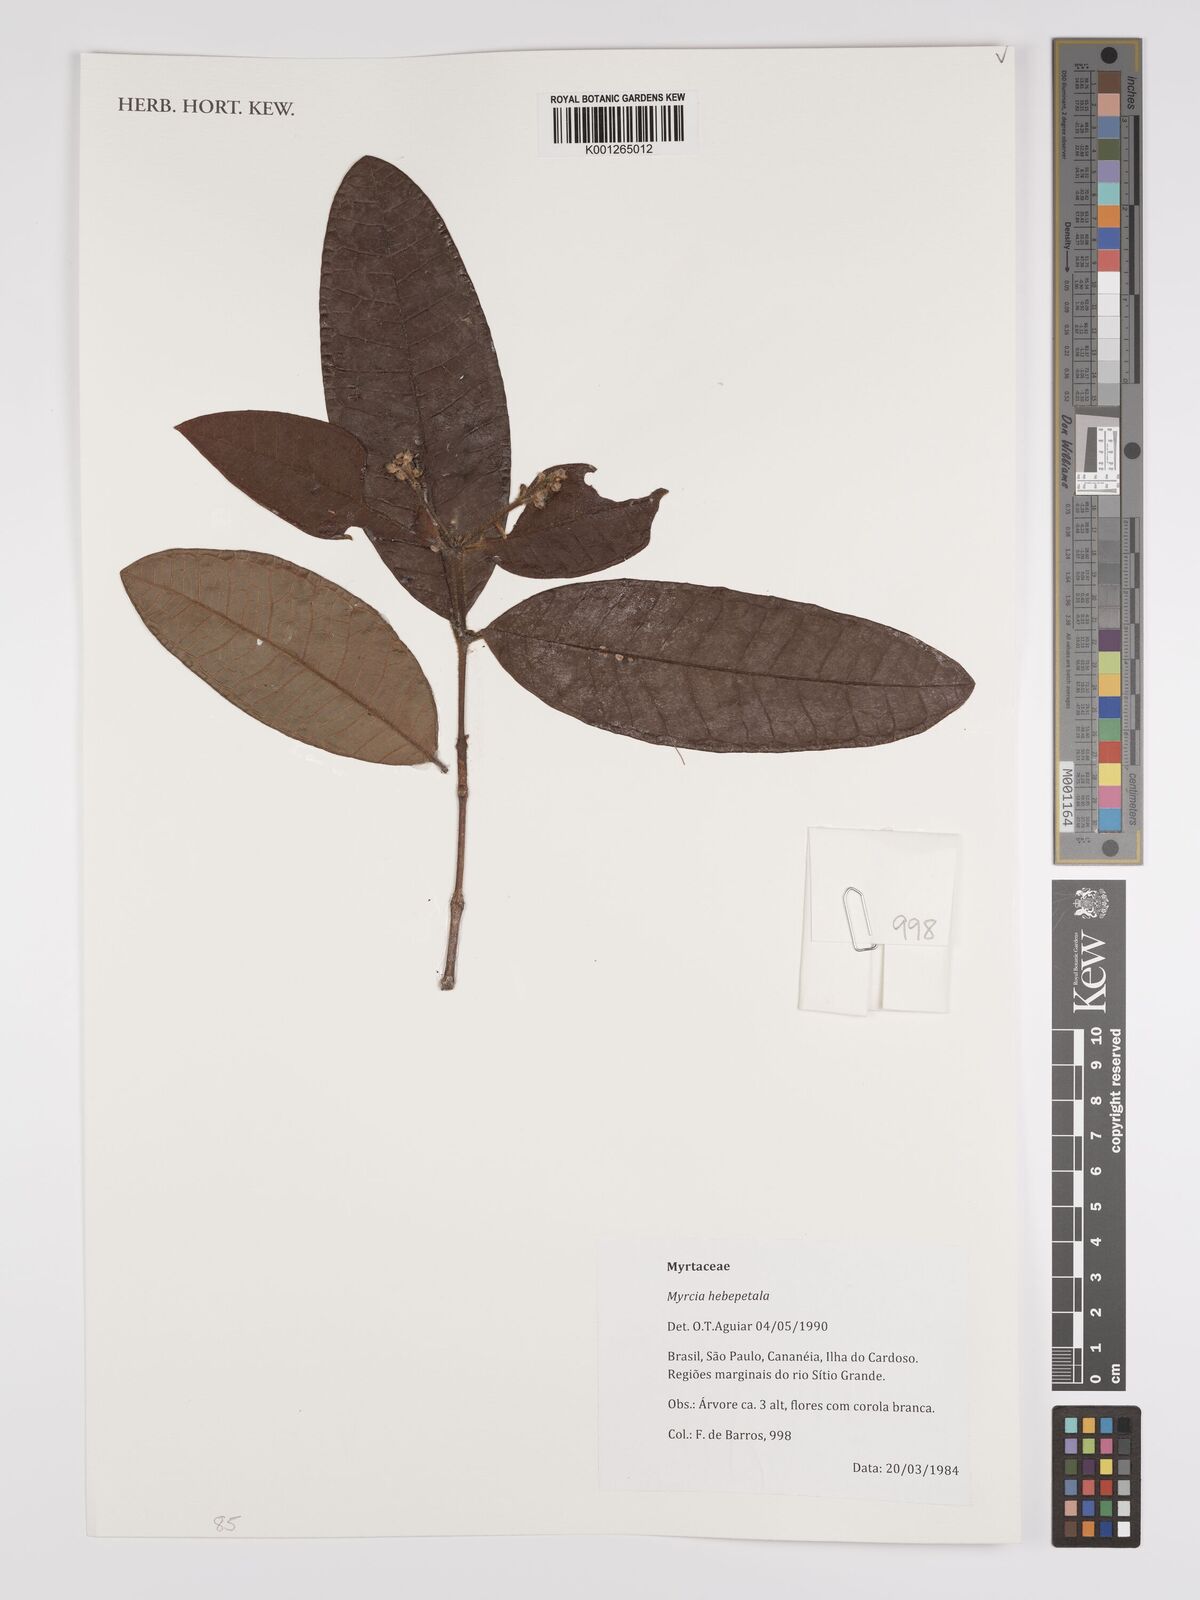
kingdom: Plantae
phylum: Tracheophyta
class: Magnoliopsida
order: Myrtales
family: Myrtaceae
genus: Myrcia
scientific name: Myrcia hebepetala
